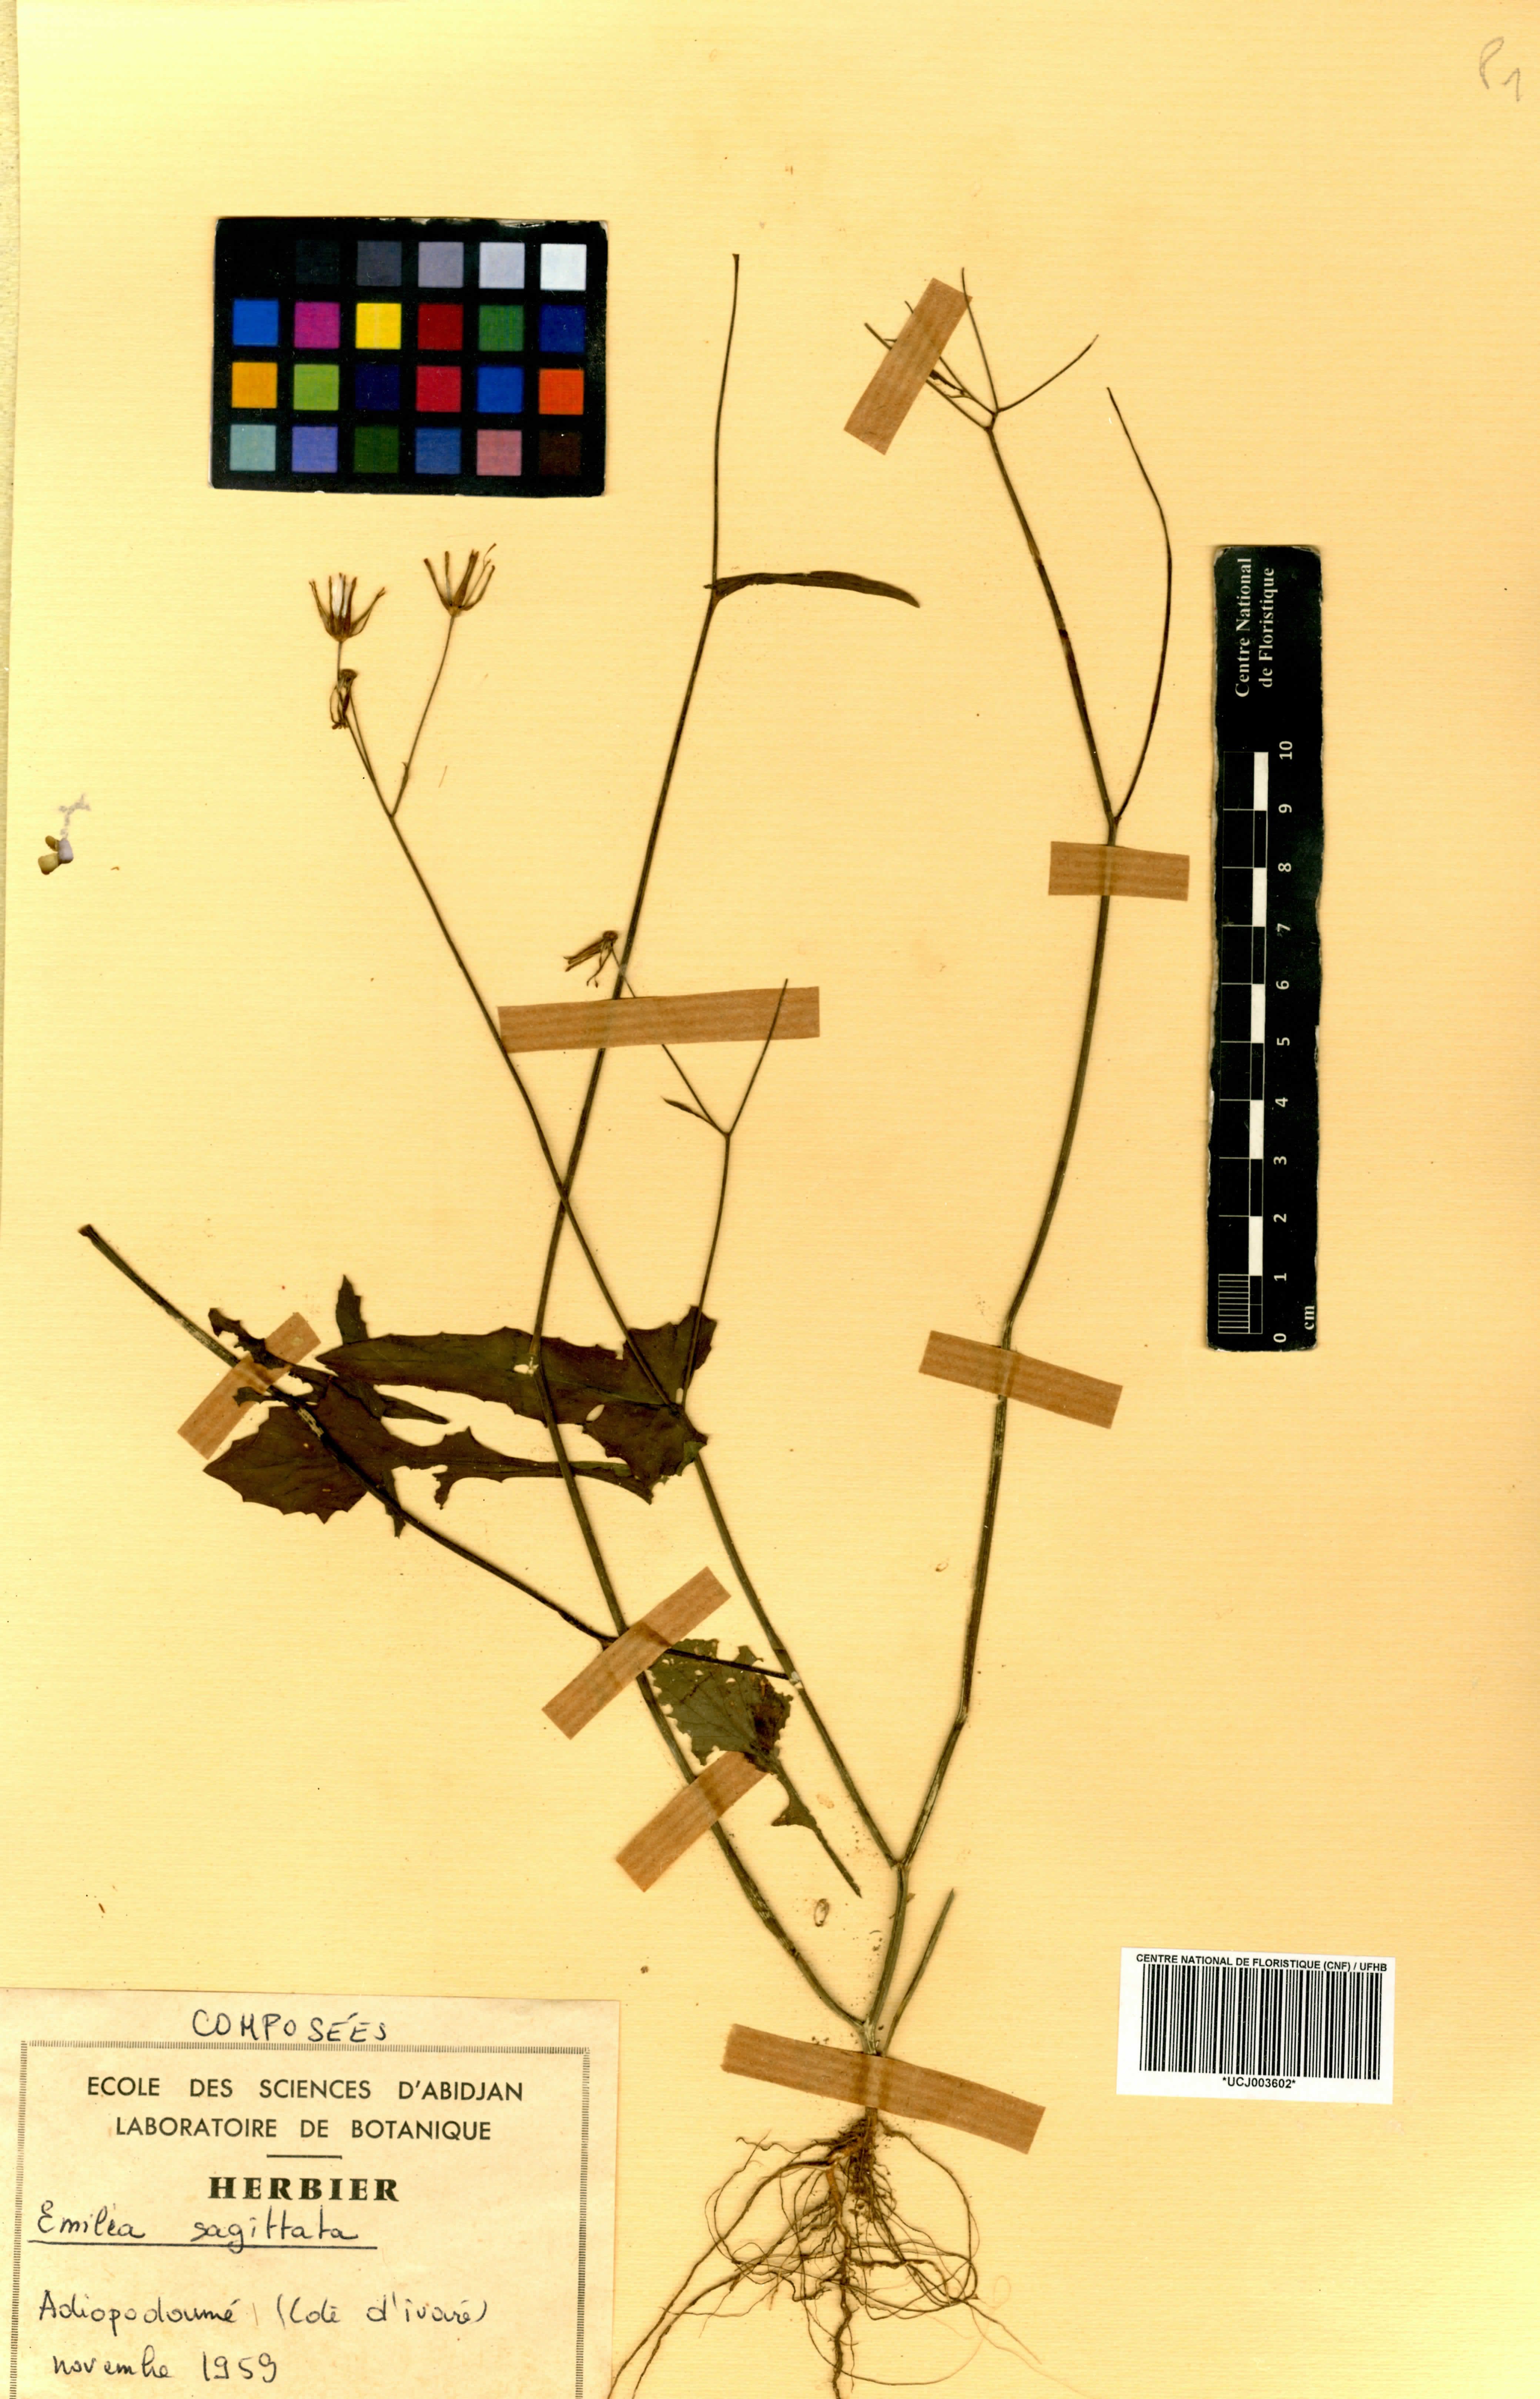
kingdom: Plantae
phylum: Tracheophyta
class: Magnoliopsida
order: Asterales
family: Asteraceae
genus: Emilia
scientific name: Emilia javanica
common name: Tassel-flower
